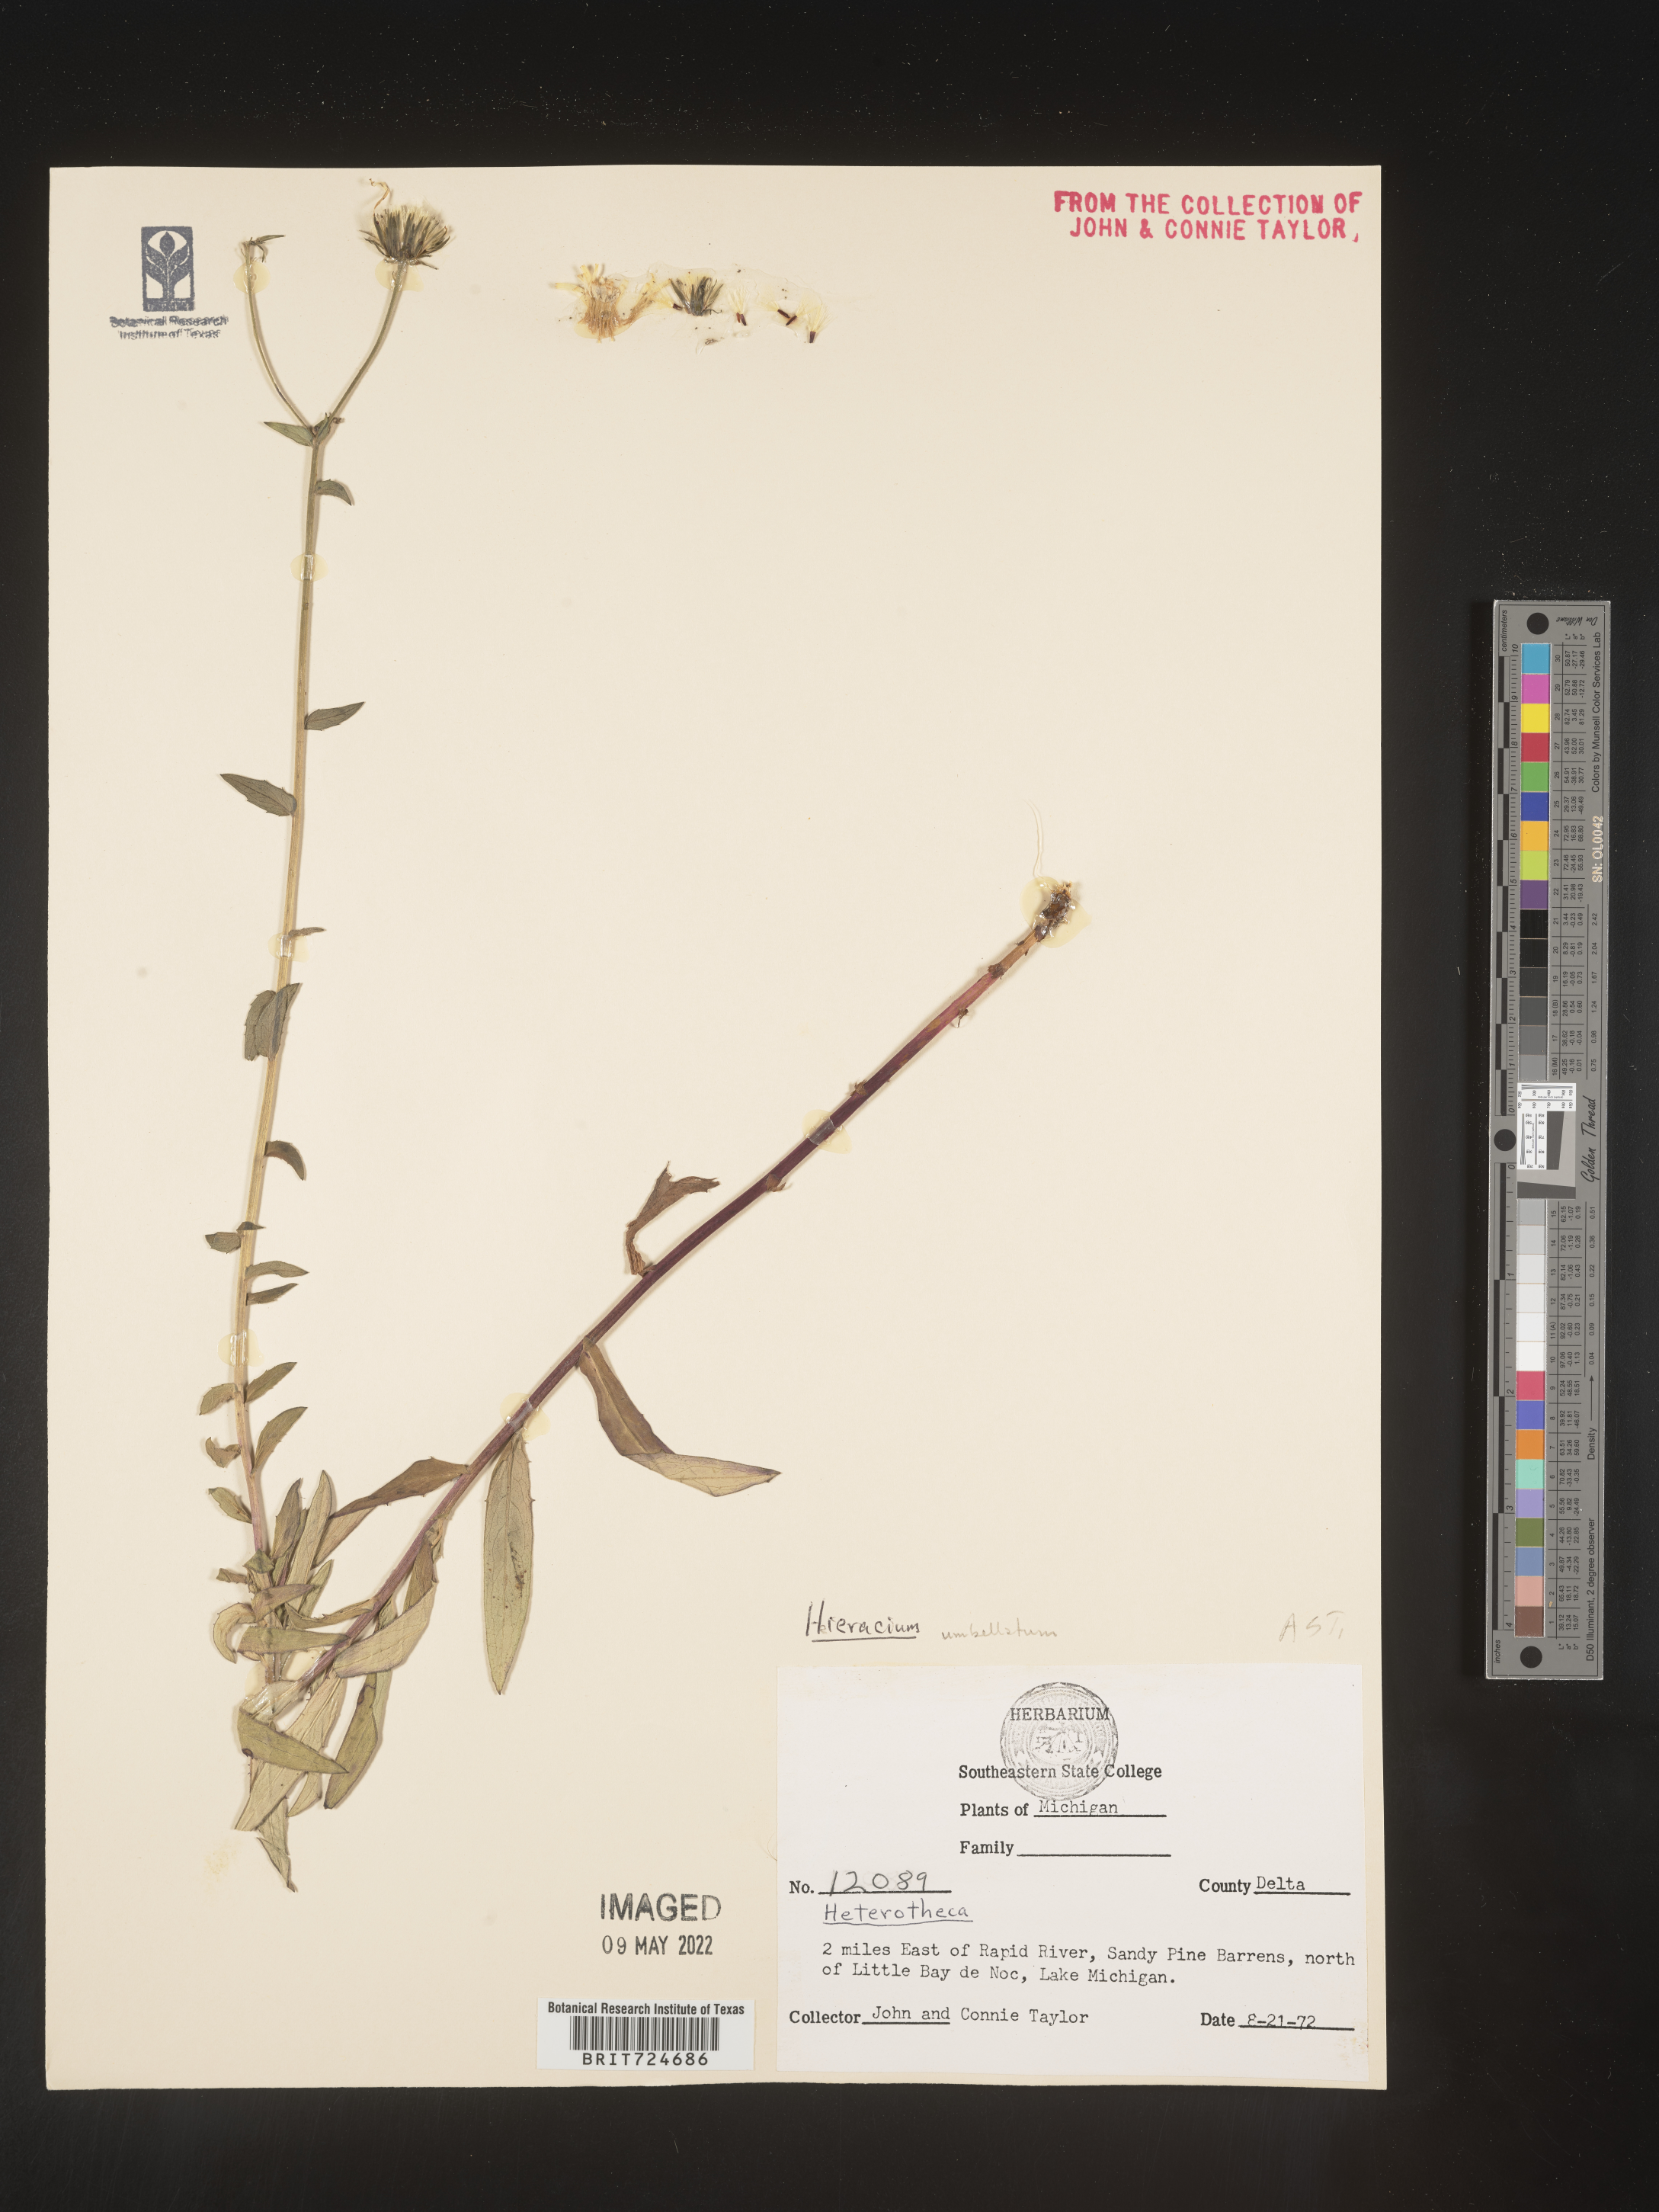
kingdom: Plantae
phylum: Tracheophyta
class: Magnoliopsida
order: Asterales
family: Asteraceae
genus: Hieracium
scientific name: Hieracium
